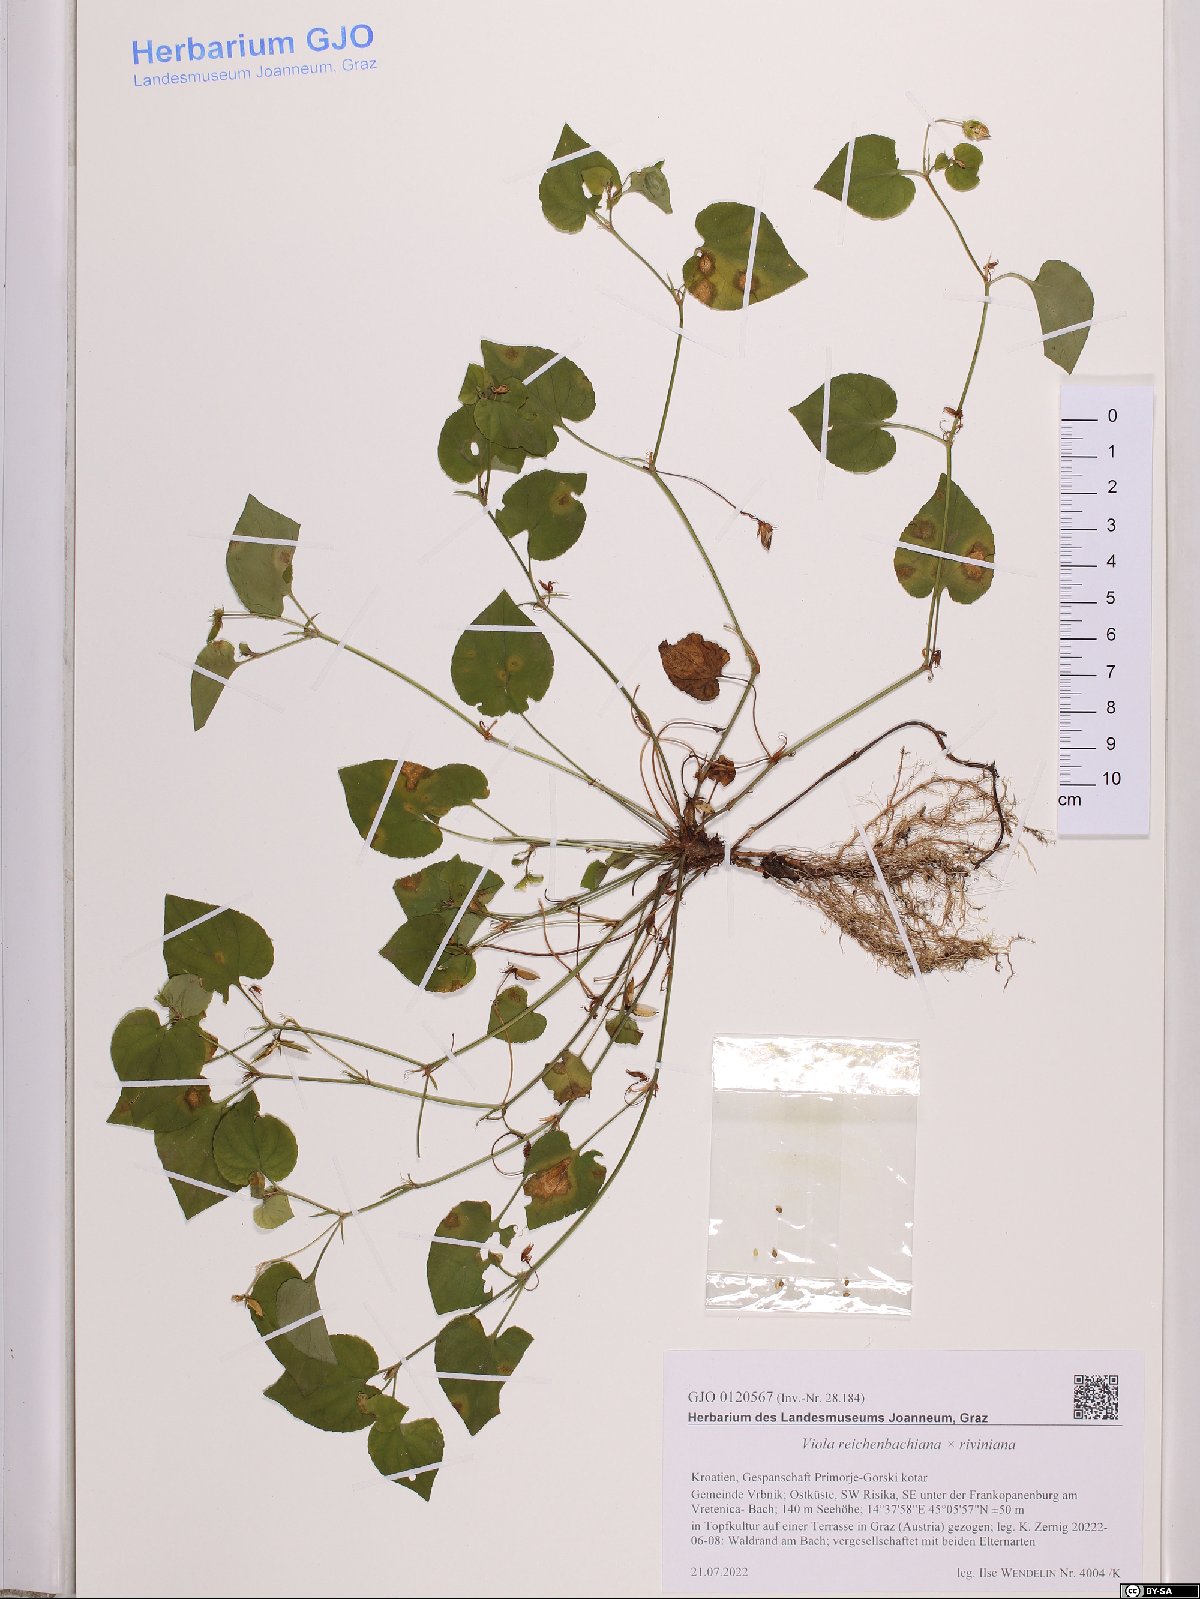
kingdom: Plantae
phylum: Tracheophyta
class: Magnoliopsida
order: Malpighiales
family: Violaceae
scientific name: Violaceae
